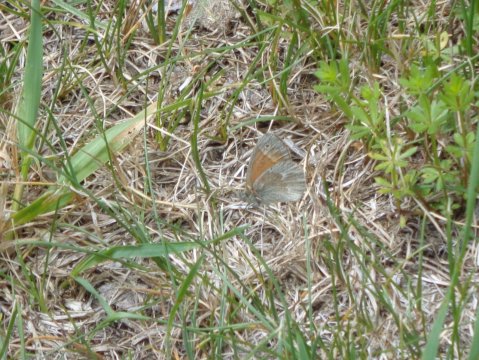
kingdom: Animalia
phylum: Arthropoda
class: Insecta
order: Lepidoptera
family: Nymphalidae
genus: Coenonympha
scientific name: Coenonympha tullia
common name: Large Heath
